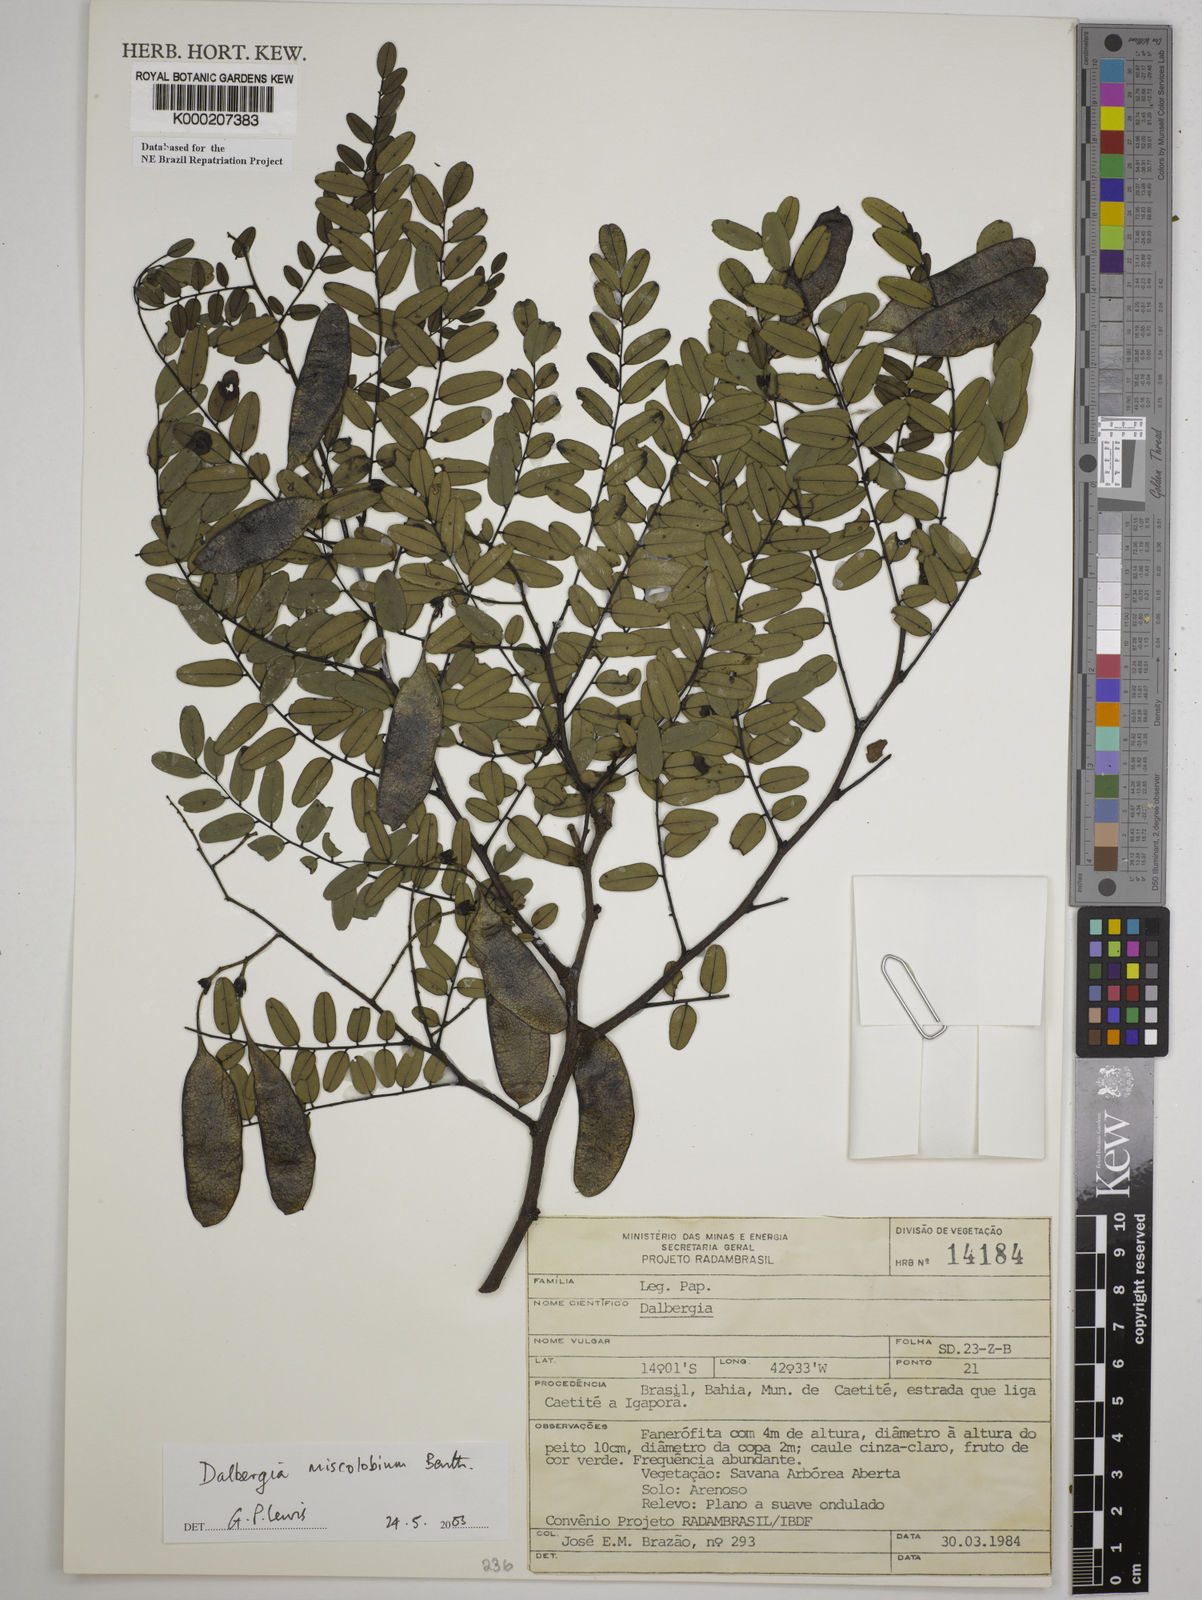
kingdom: Plantae
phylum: Tracheophyta
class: Magnoliopsida
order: Fabales
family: Fabaceae
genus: Dalbergia
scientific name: Dalbergia miscolobium
